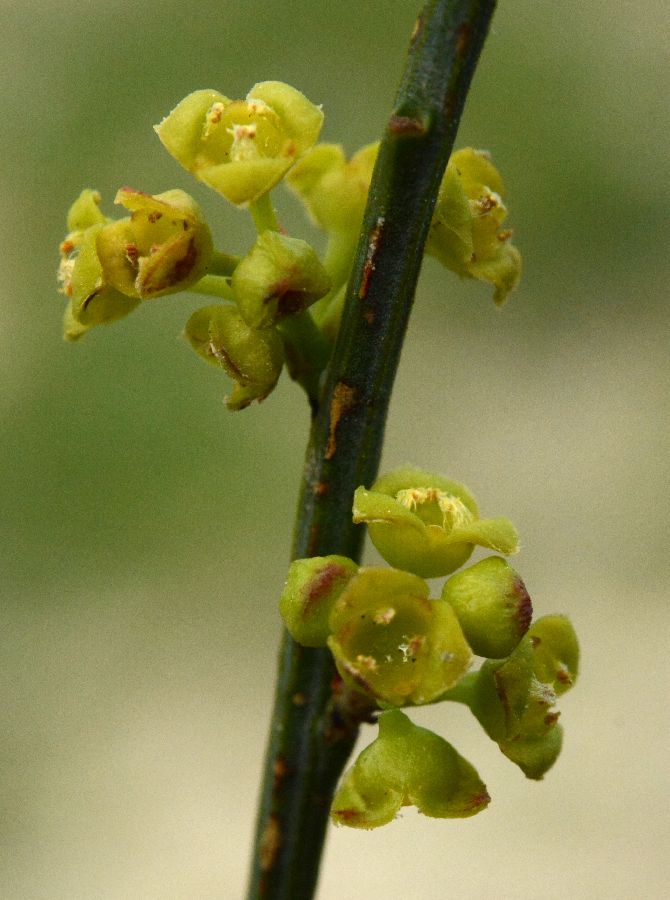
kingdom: Plantae
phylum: Tracheophyta
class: Magnoliopsida
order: Santalales
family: Santalaceae
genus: Osyris
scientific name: Osyris alba
